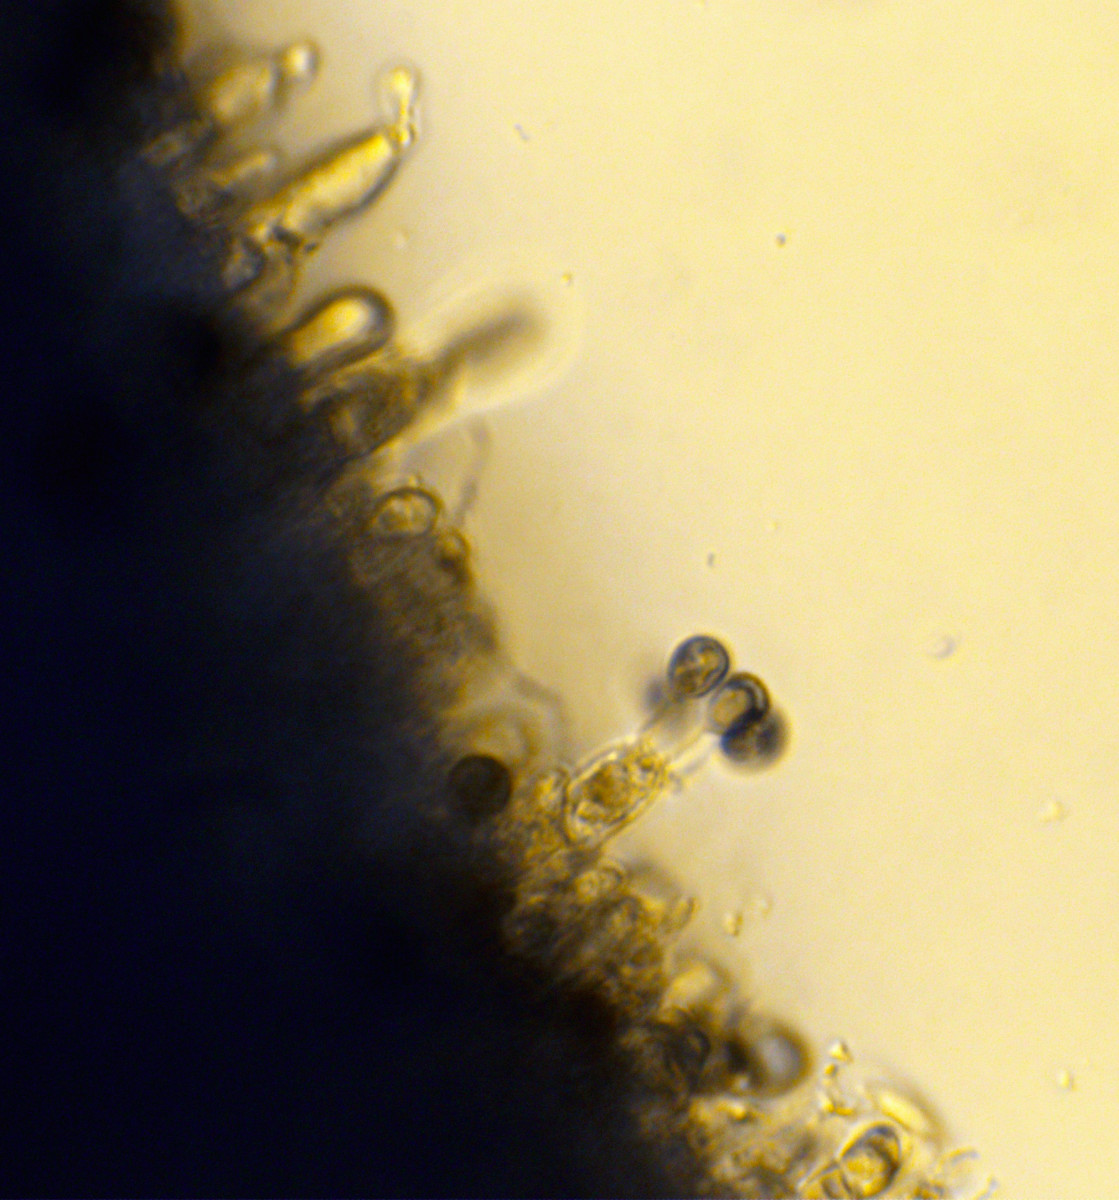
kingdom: Fungi
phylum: Basidiomycota
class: Agaricomycetes
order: Russulales
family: Hericiaceae
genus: Dentipellis
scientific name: Dentipellis fragilis
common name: pighud
